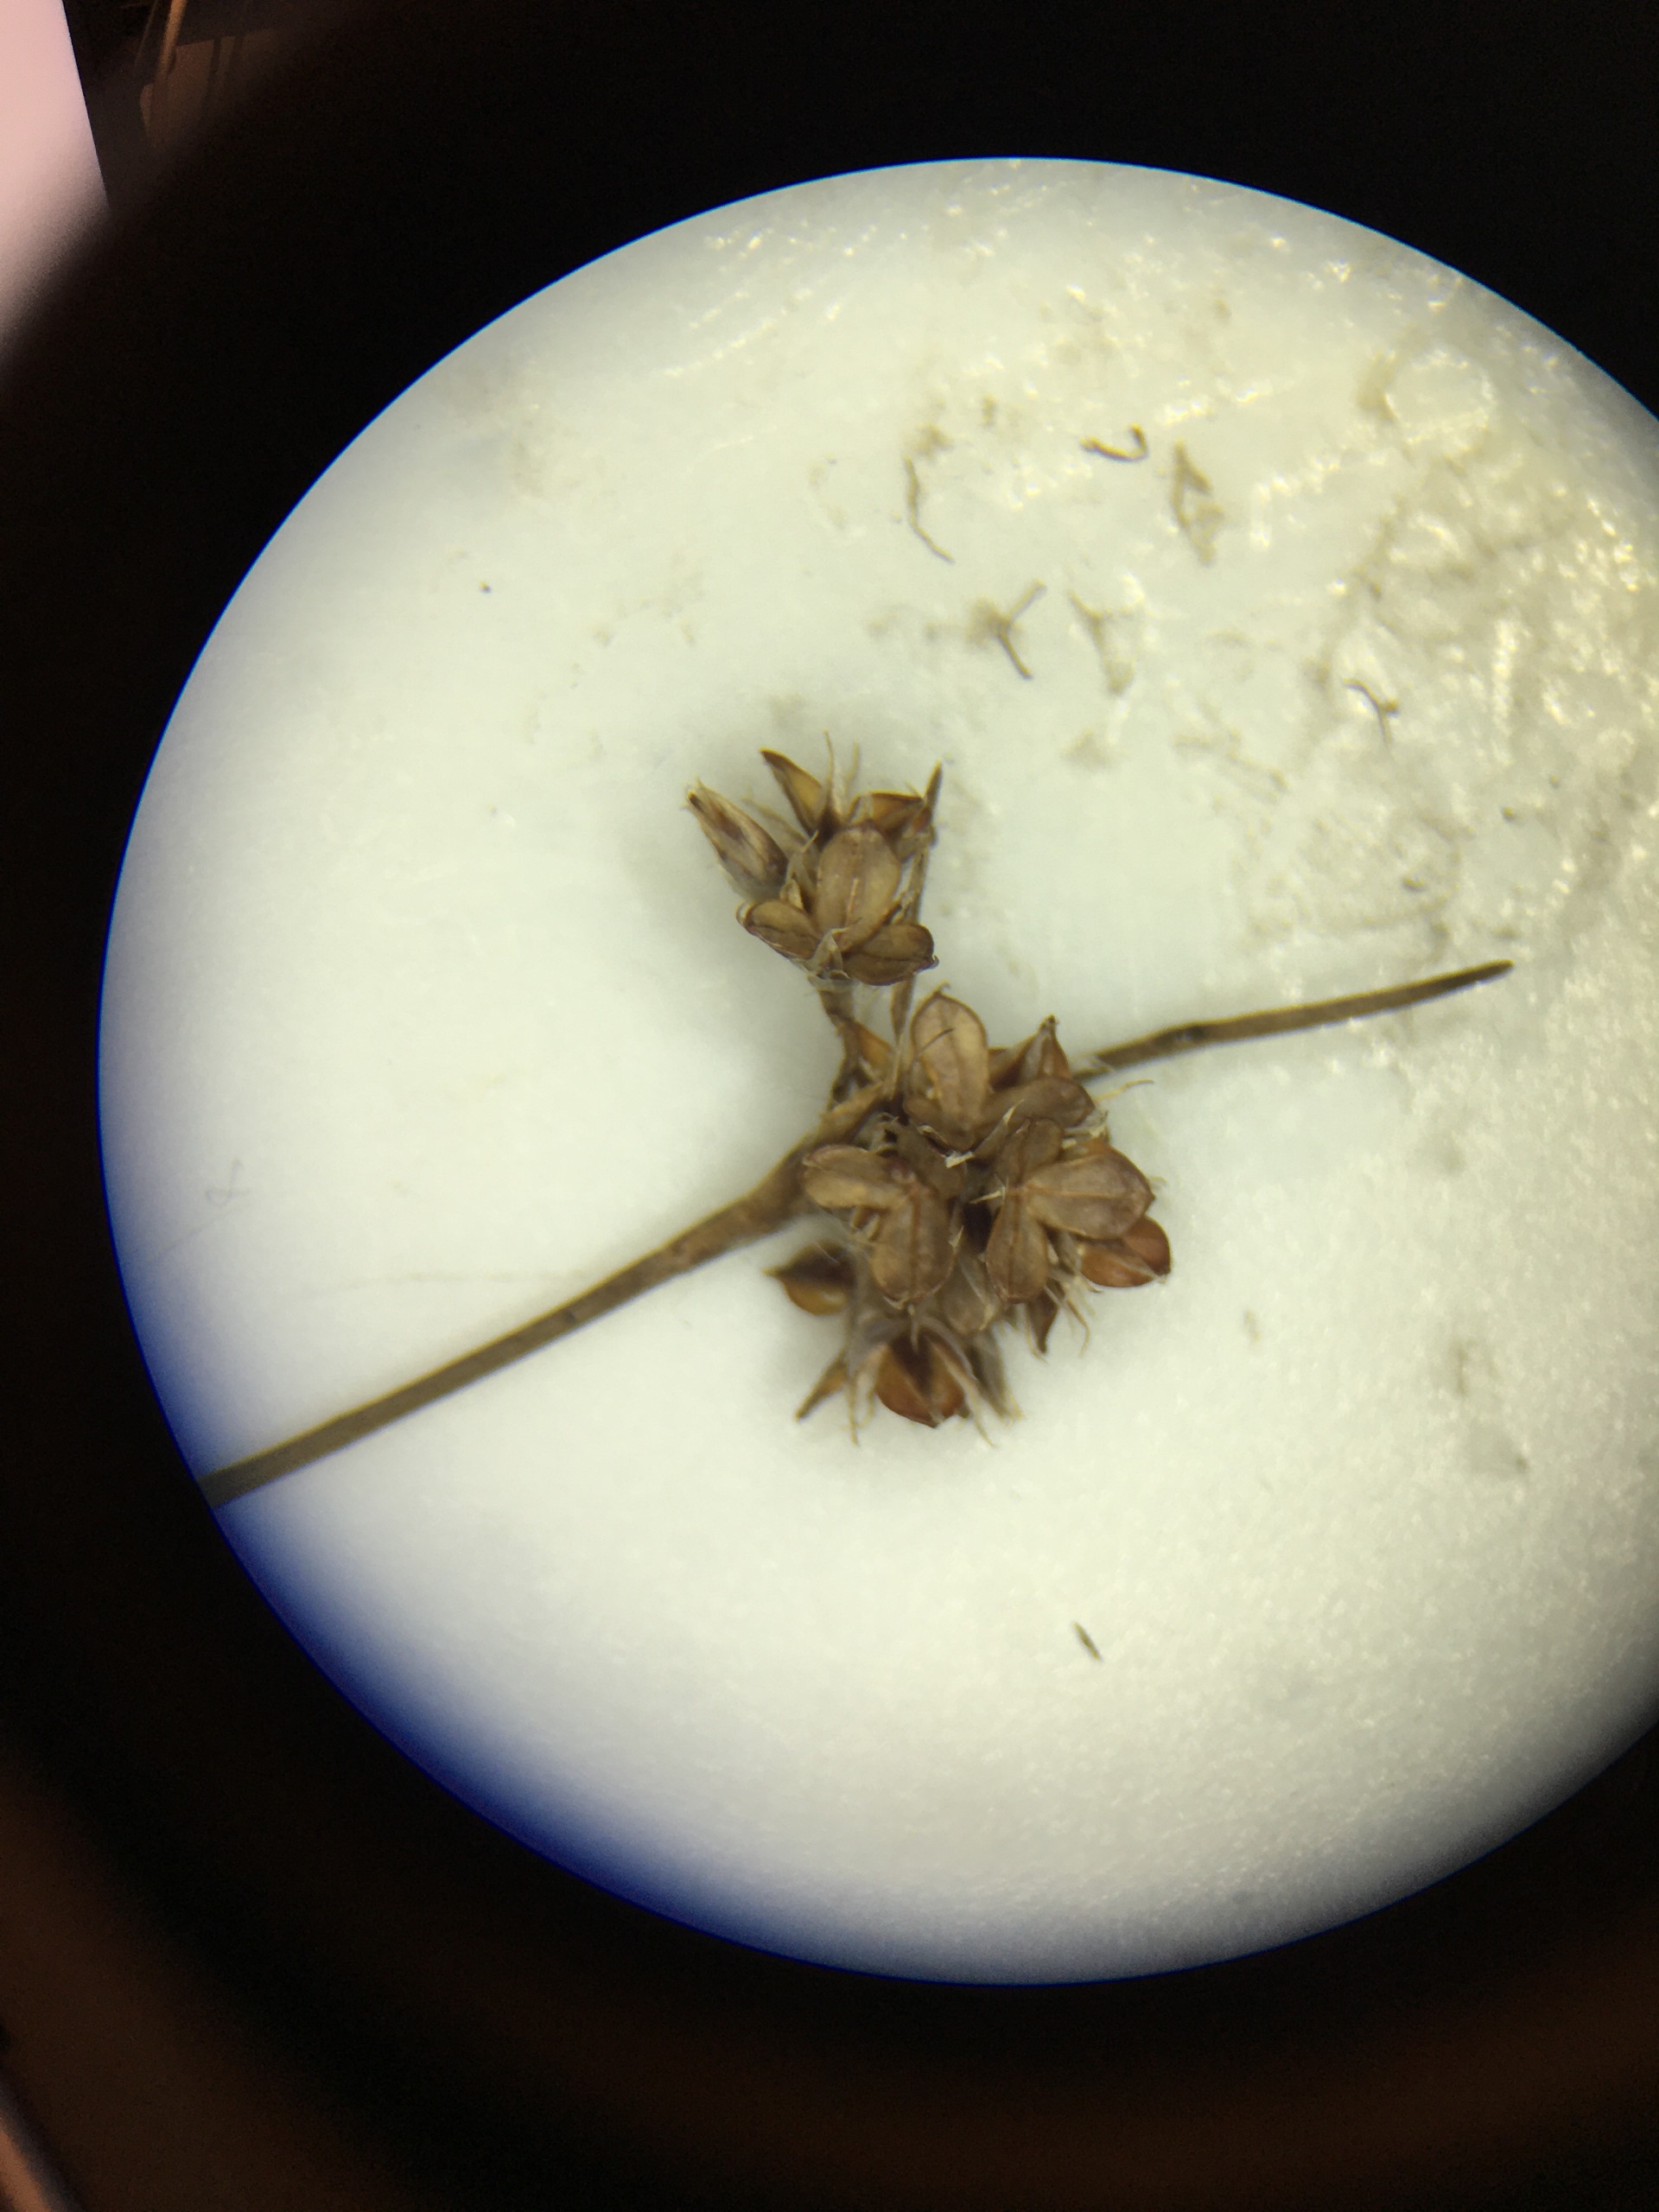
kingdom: Plantae
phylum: Tracheophyta
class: Liliopsida
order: Poales
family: Juncaceae
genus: Luzula
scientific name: Luzula campestris
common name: Mark-frytle
